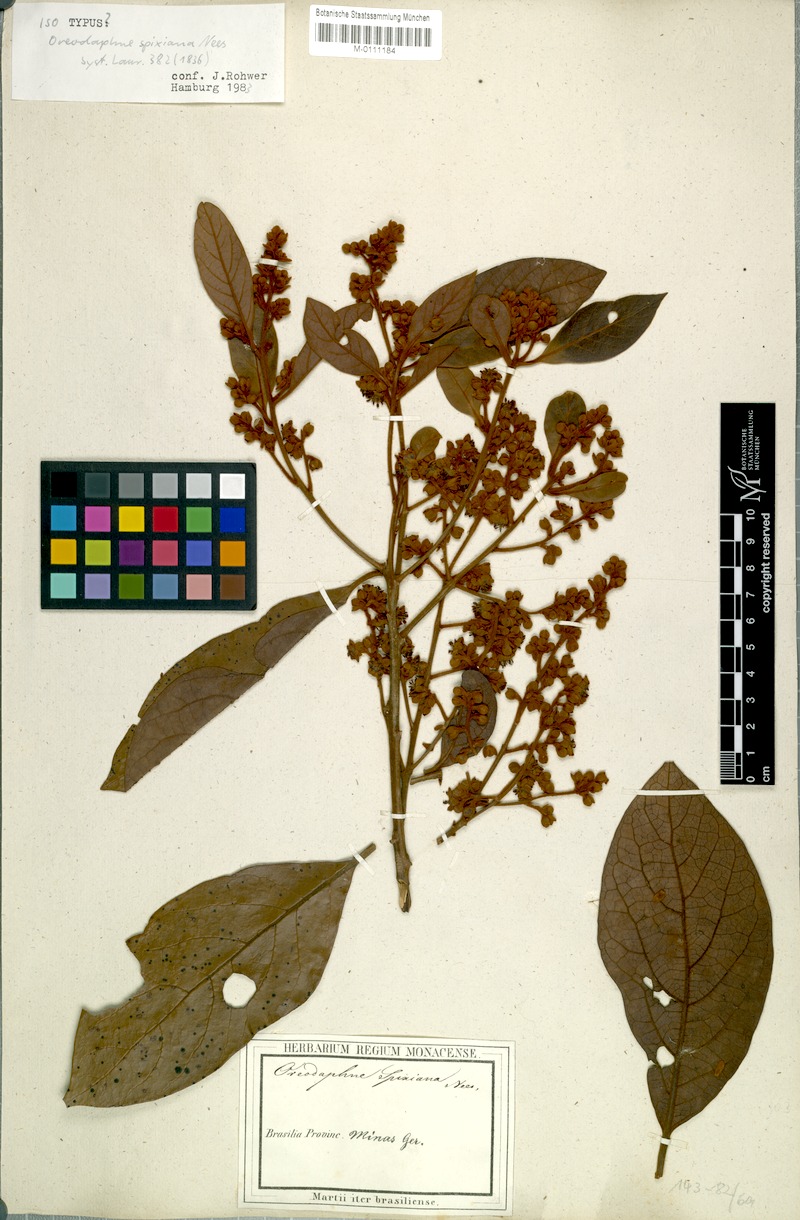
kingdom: Plantae
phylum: Tracheophyta
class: Magnoliopsida
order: Laurales
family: Lauraceae
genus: Ocotea
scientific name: Ocotea spixiana
